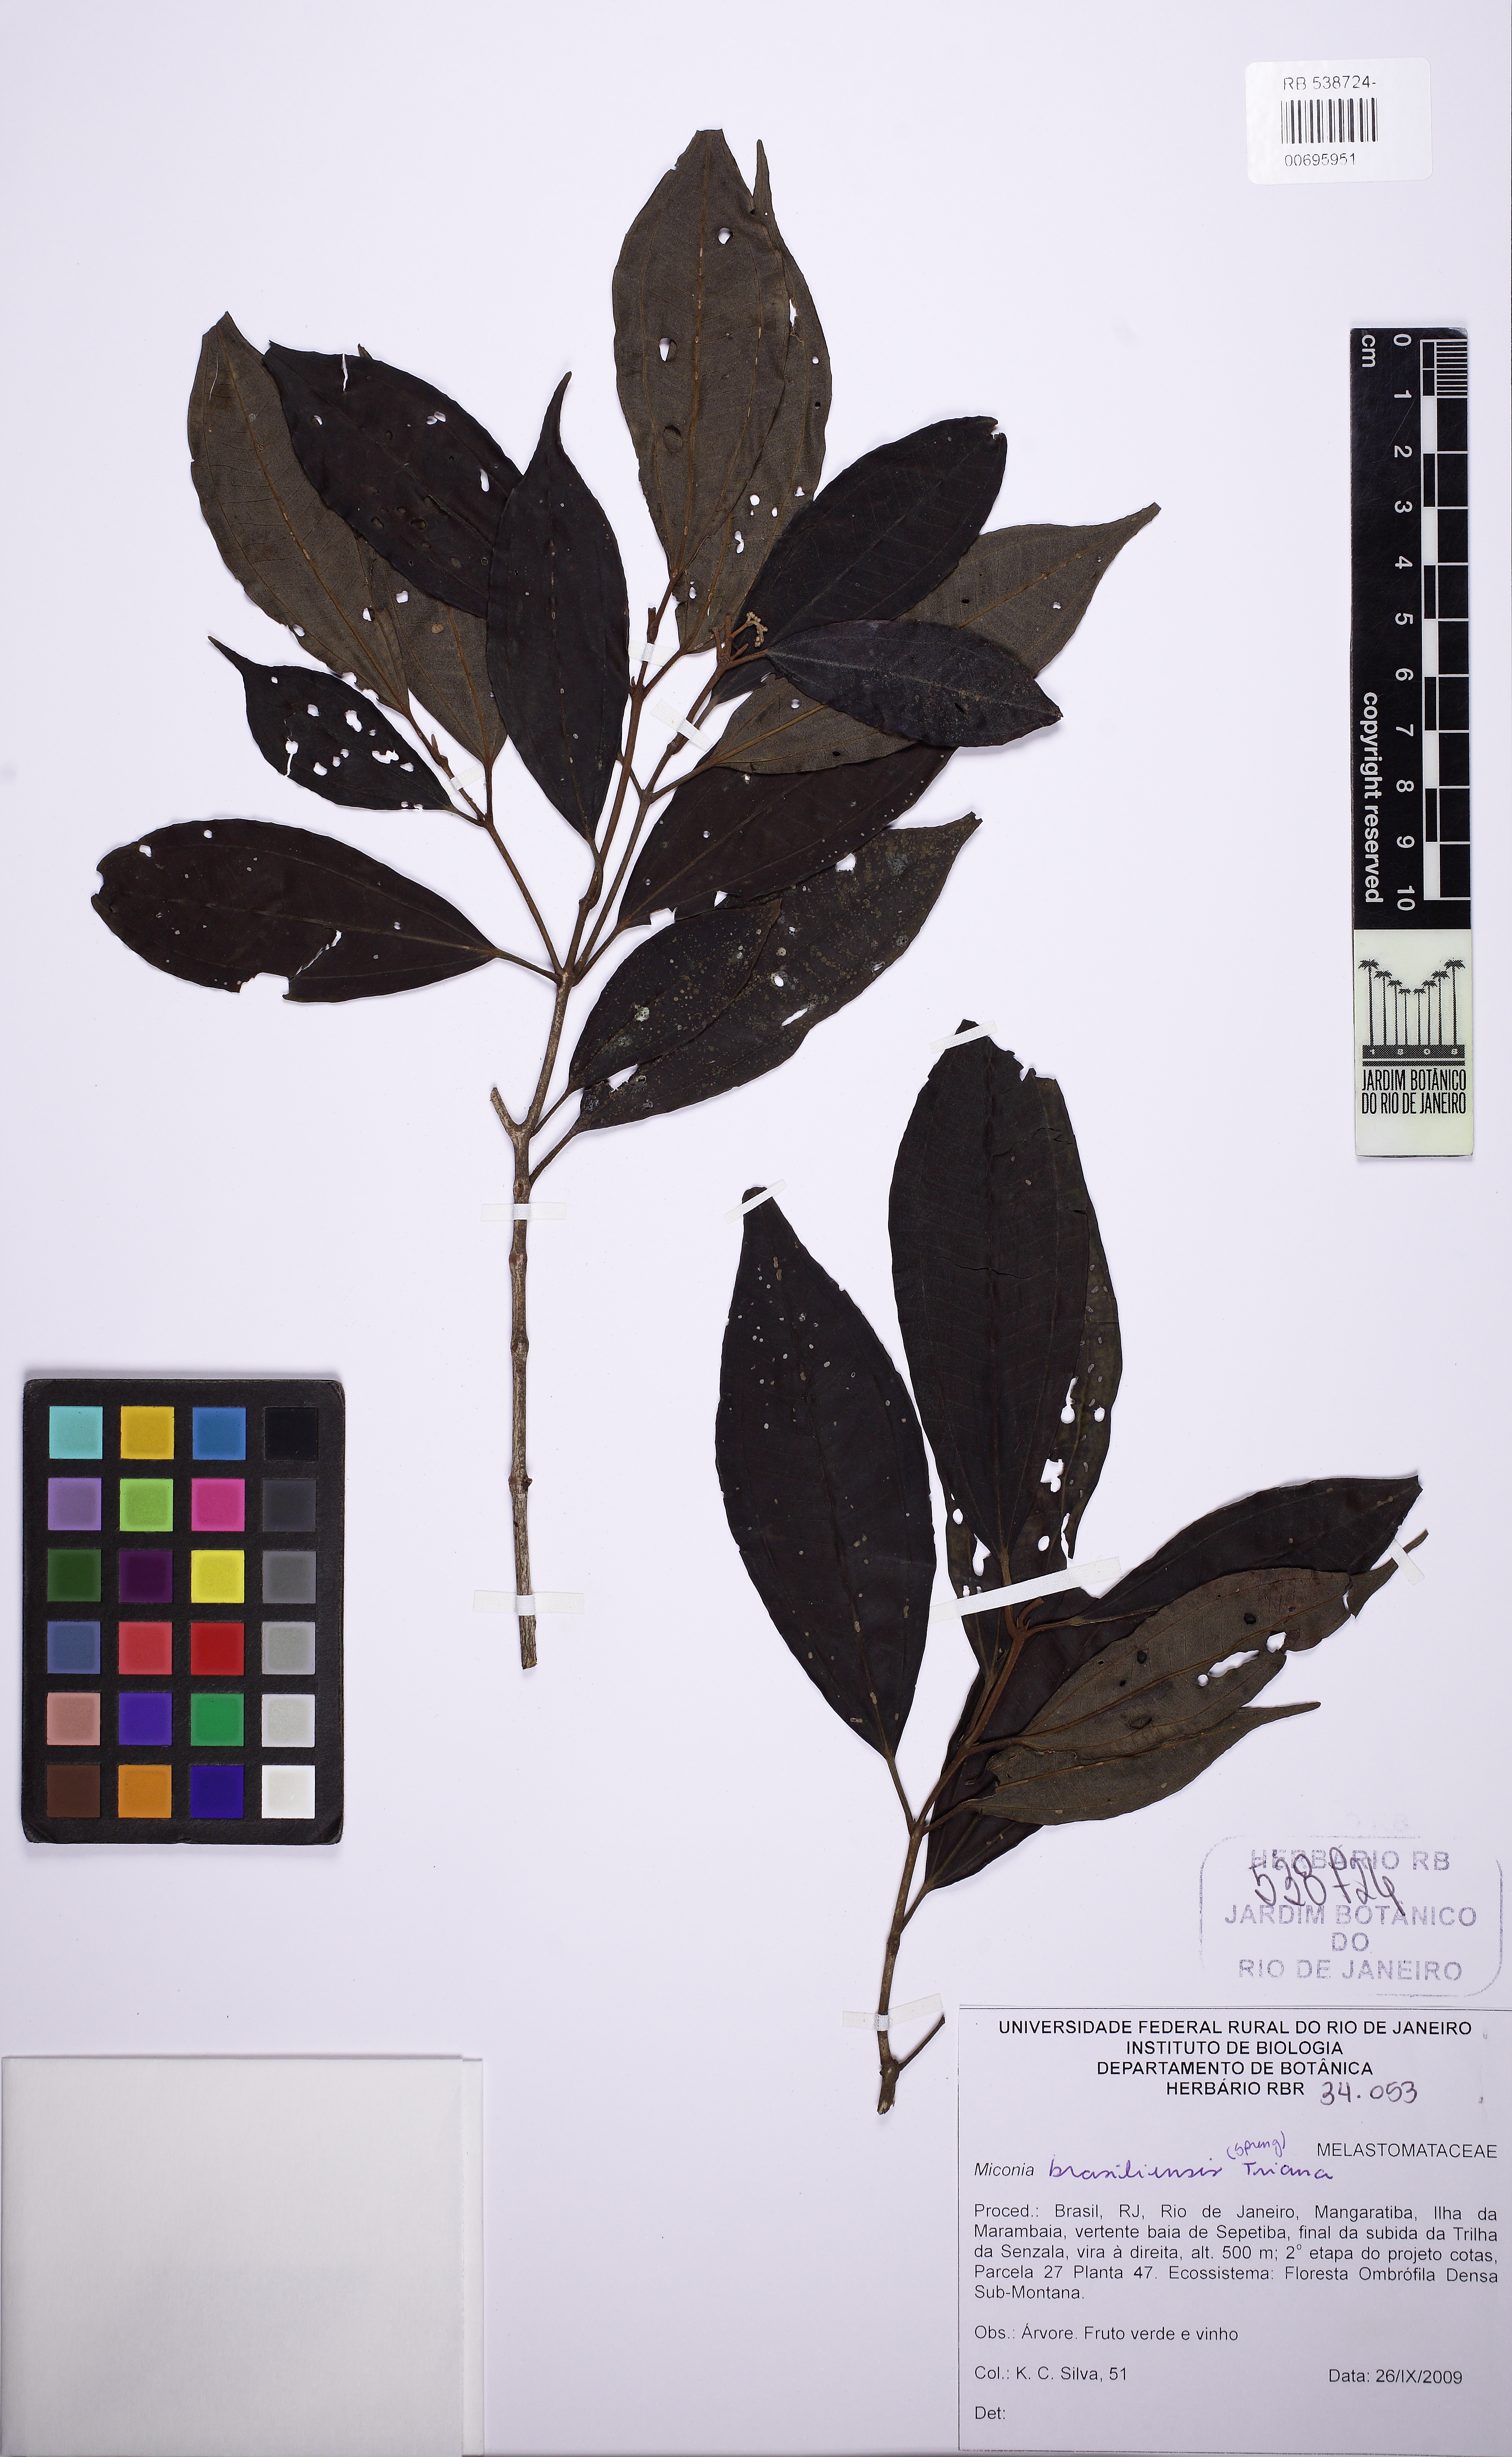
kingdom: Plantae
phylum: Tracheophyta
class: Magnoliopsida
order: Myrtales
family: Melastomataceae
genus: Miconia
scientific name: Miconia brasiliensis
